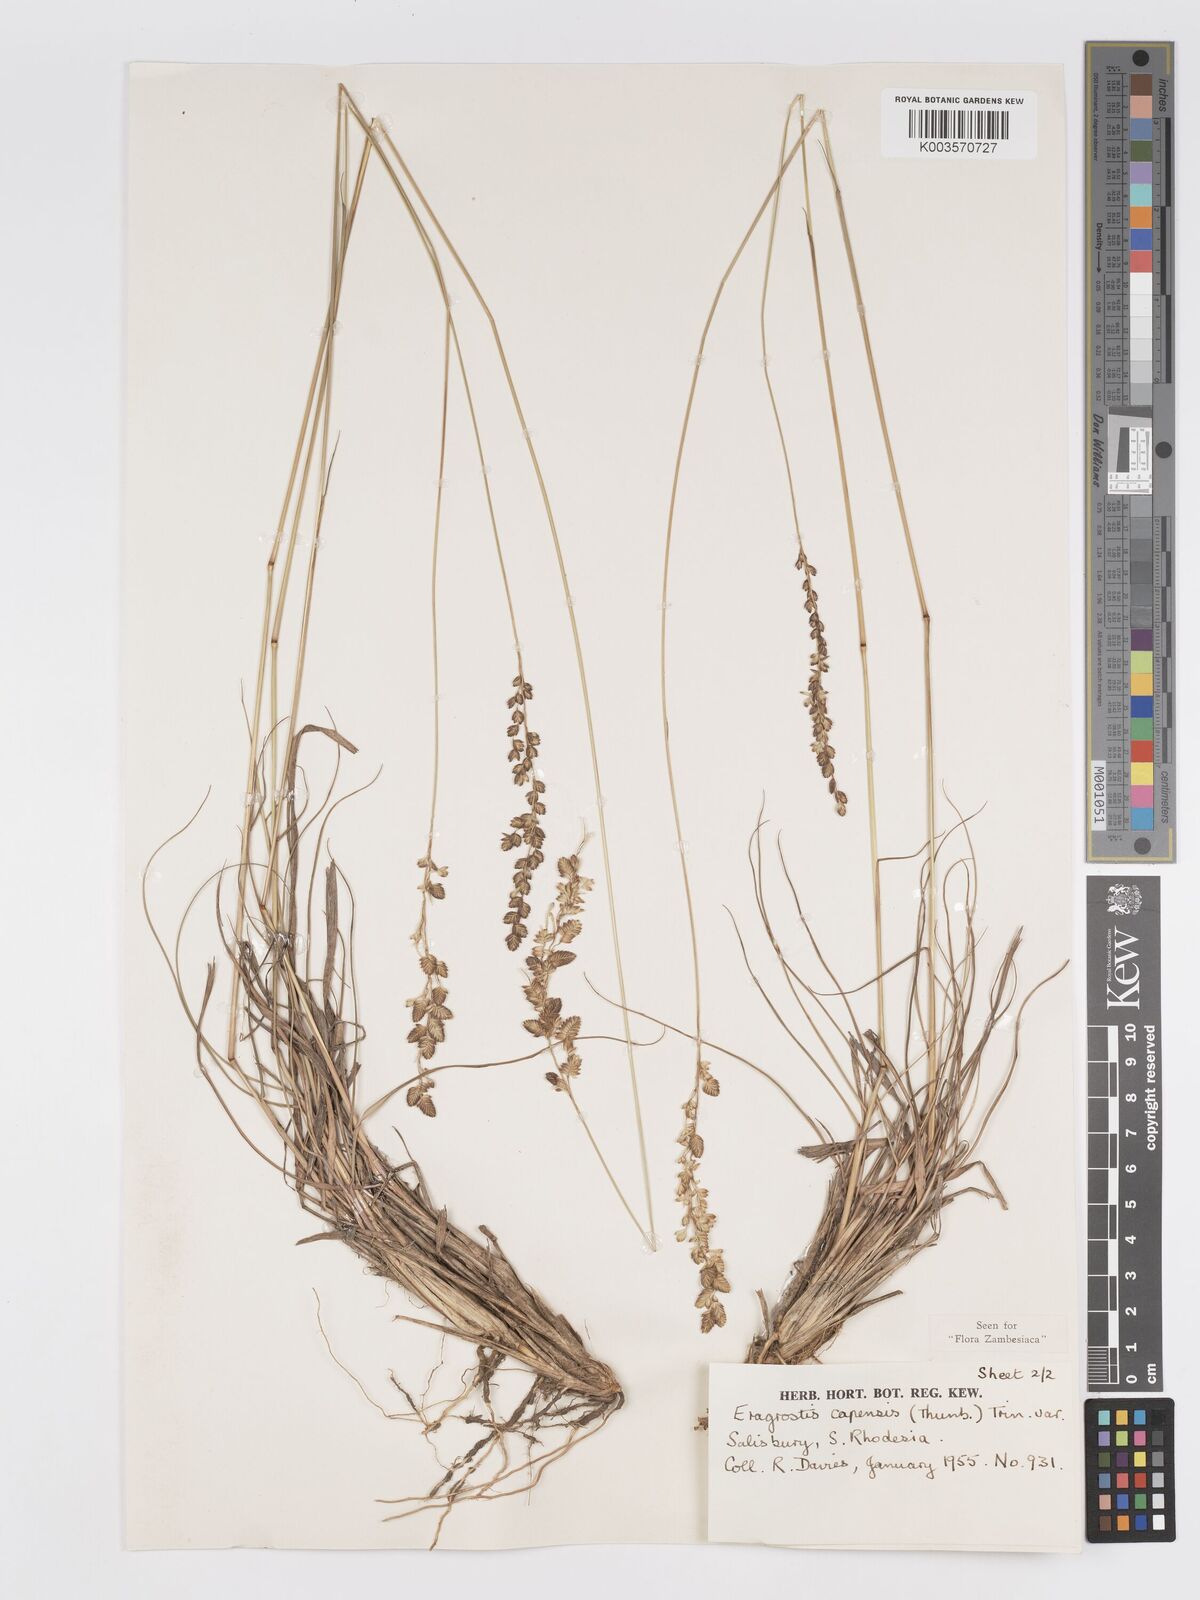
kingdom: Plantae
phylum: Tracheophyta
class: Liliopsida
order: Poales
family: Poaceae
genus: Eragrostis
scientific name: Eragrostis capensis
